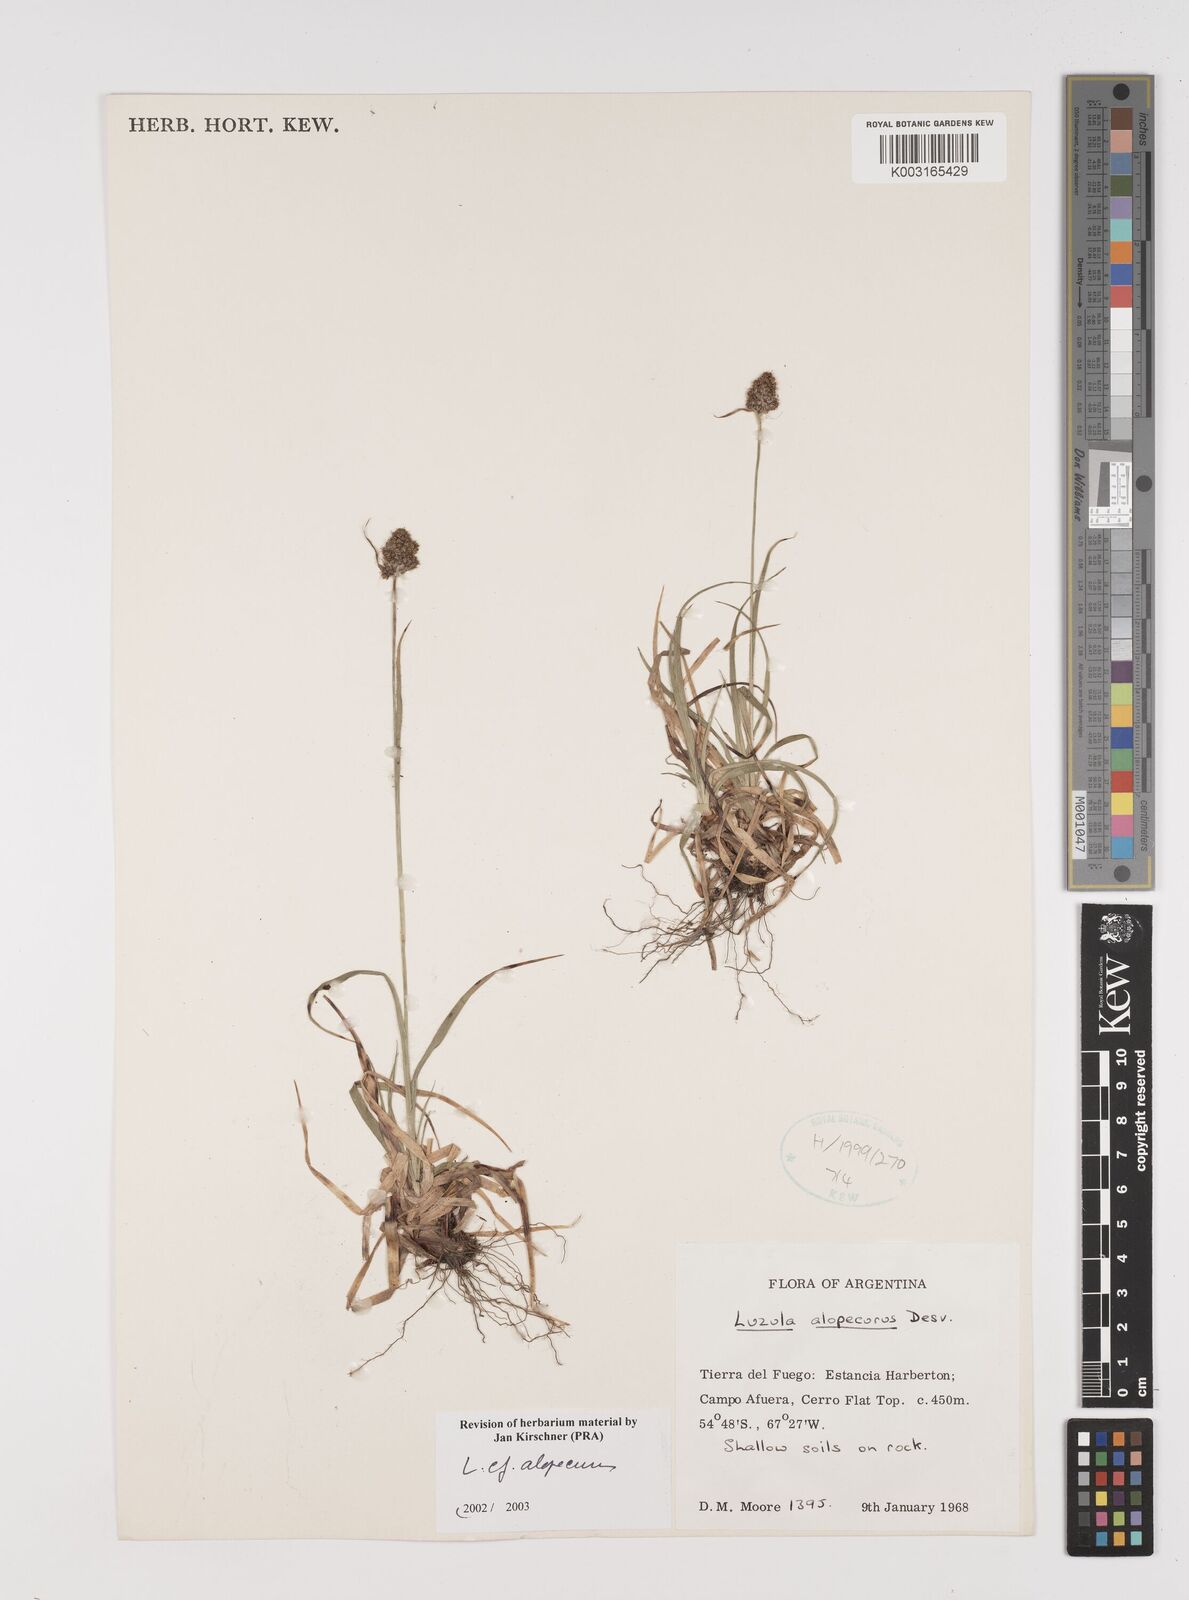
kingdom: Plantae
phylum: Tracheophyta
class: Liliopsida
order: Poales
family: Juncaceae
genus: Luzula
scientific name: Luzula alopecurus
